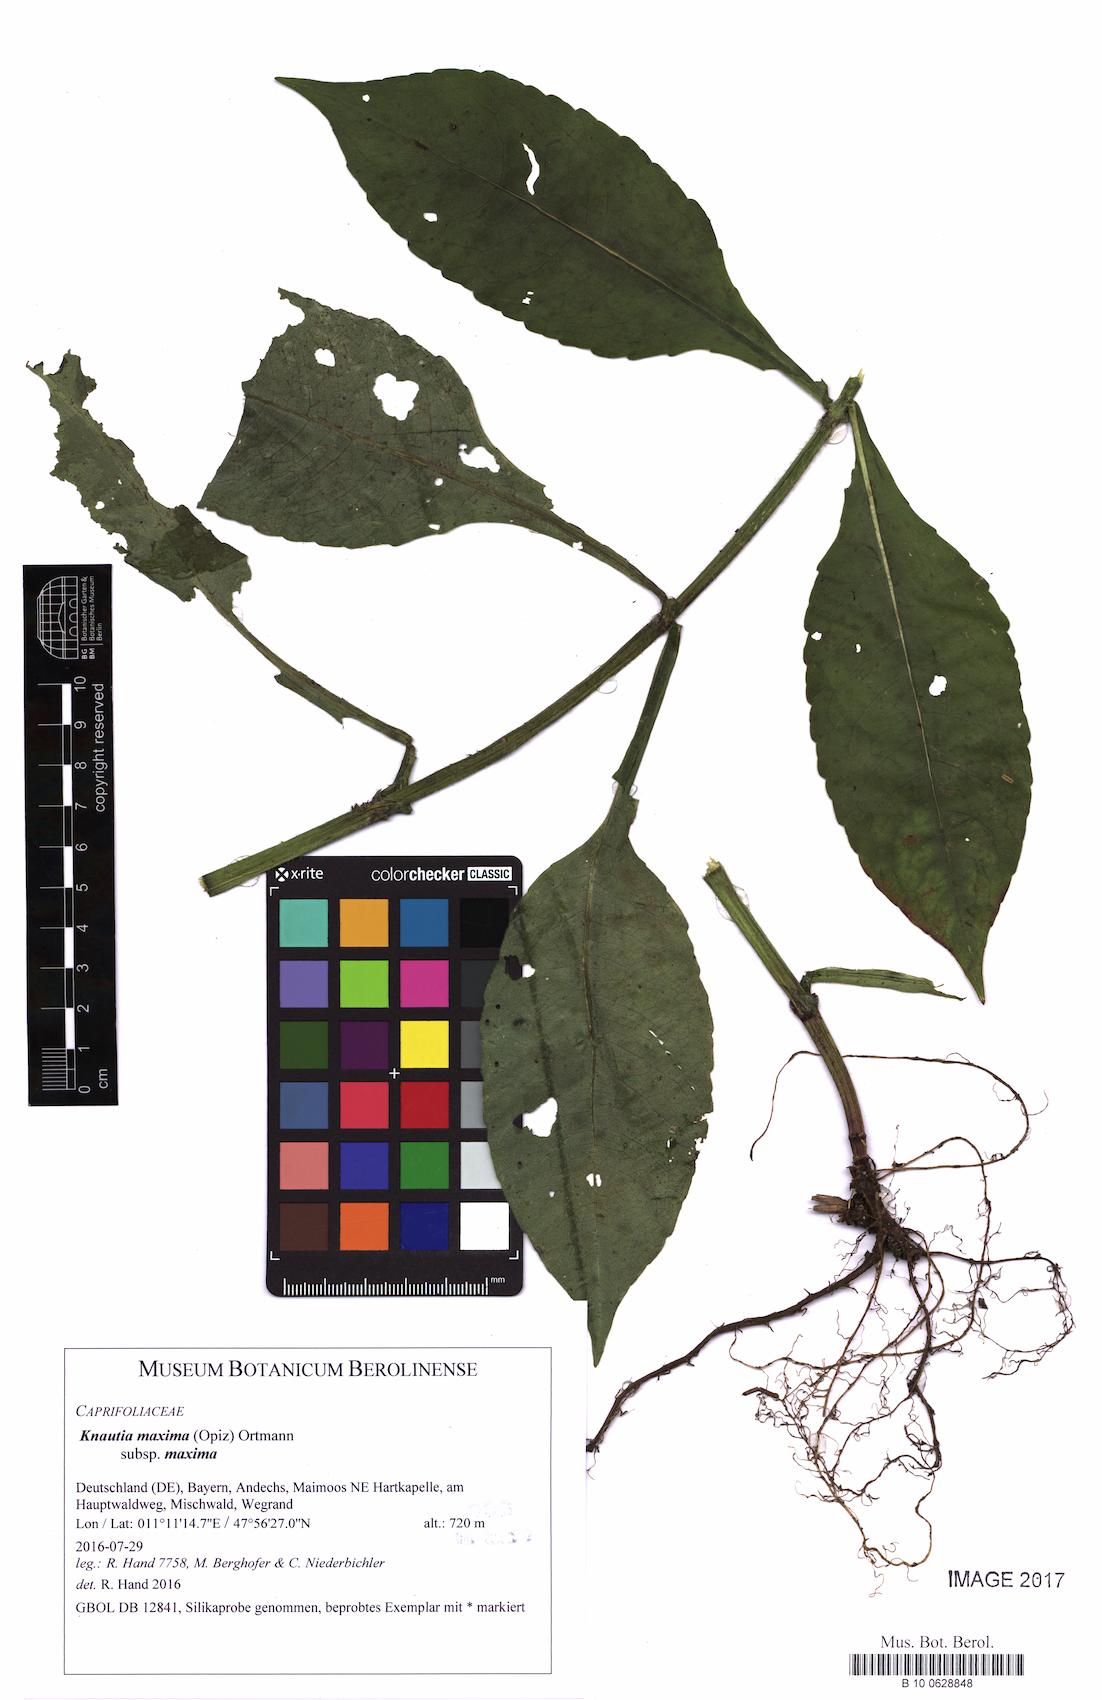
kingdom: Plantae
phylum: Tracheophyta
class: Magnoliopsida
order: Dipsacales
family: Caprifoliaceae
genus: Knautia
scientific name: Knautia dipsacifolia
